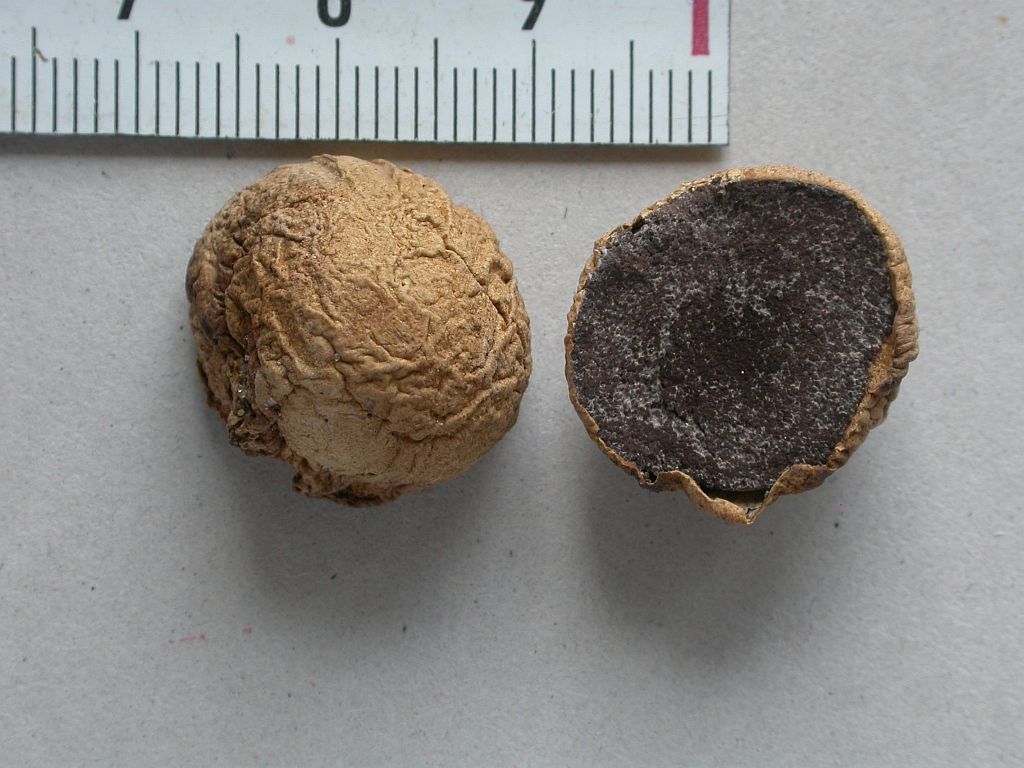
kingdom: Fungi
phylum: Basidiomycota
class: Agaricomycetes
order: Boletales
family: Sclerodermataceae
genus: Scleroderma
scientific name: Scleroderma bovista
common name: bovist-bruskbold
